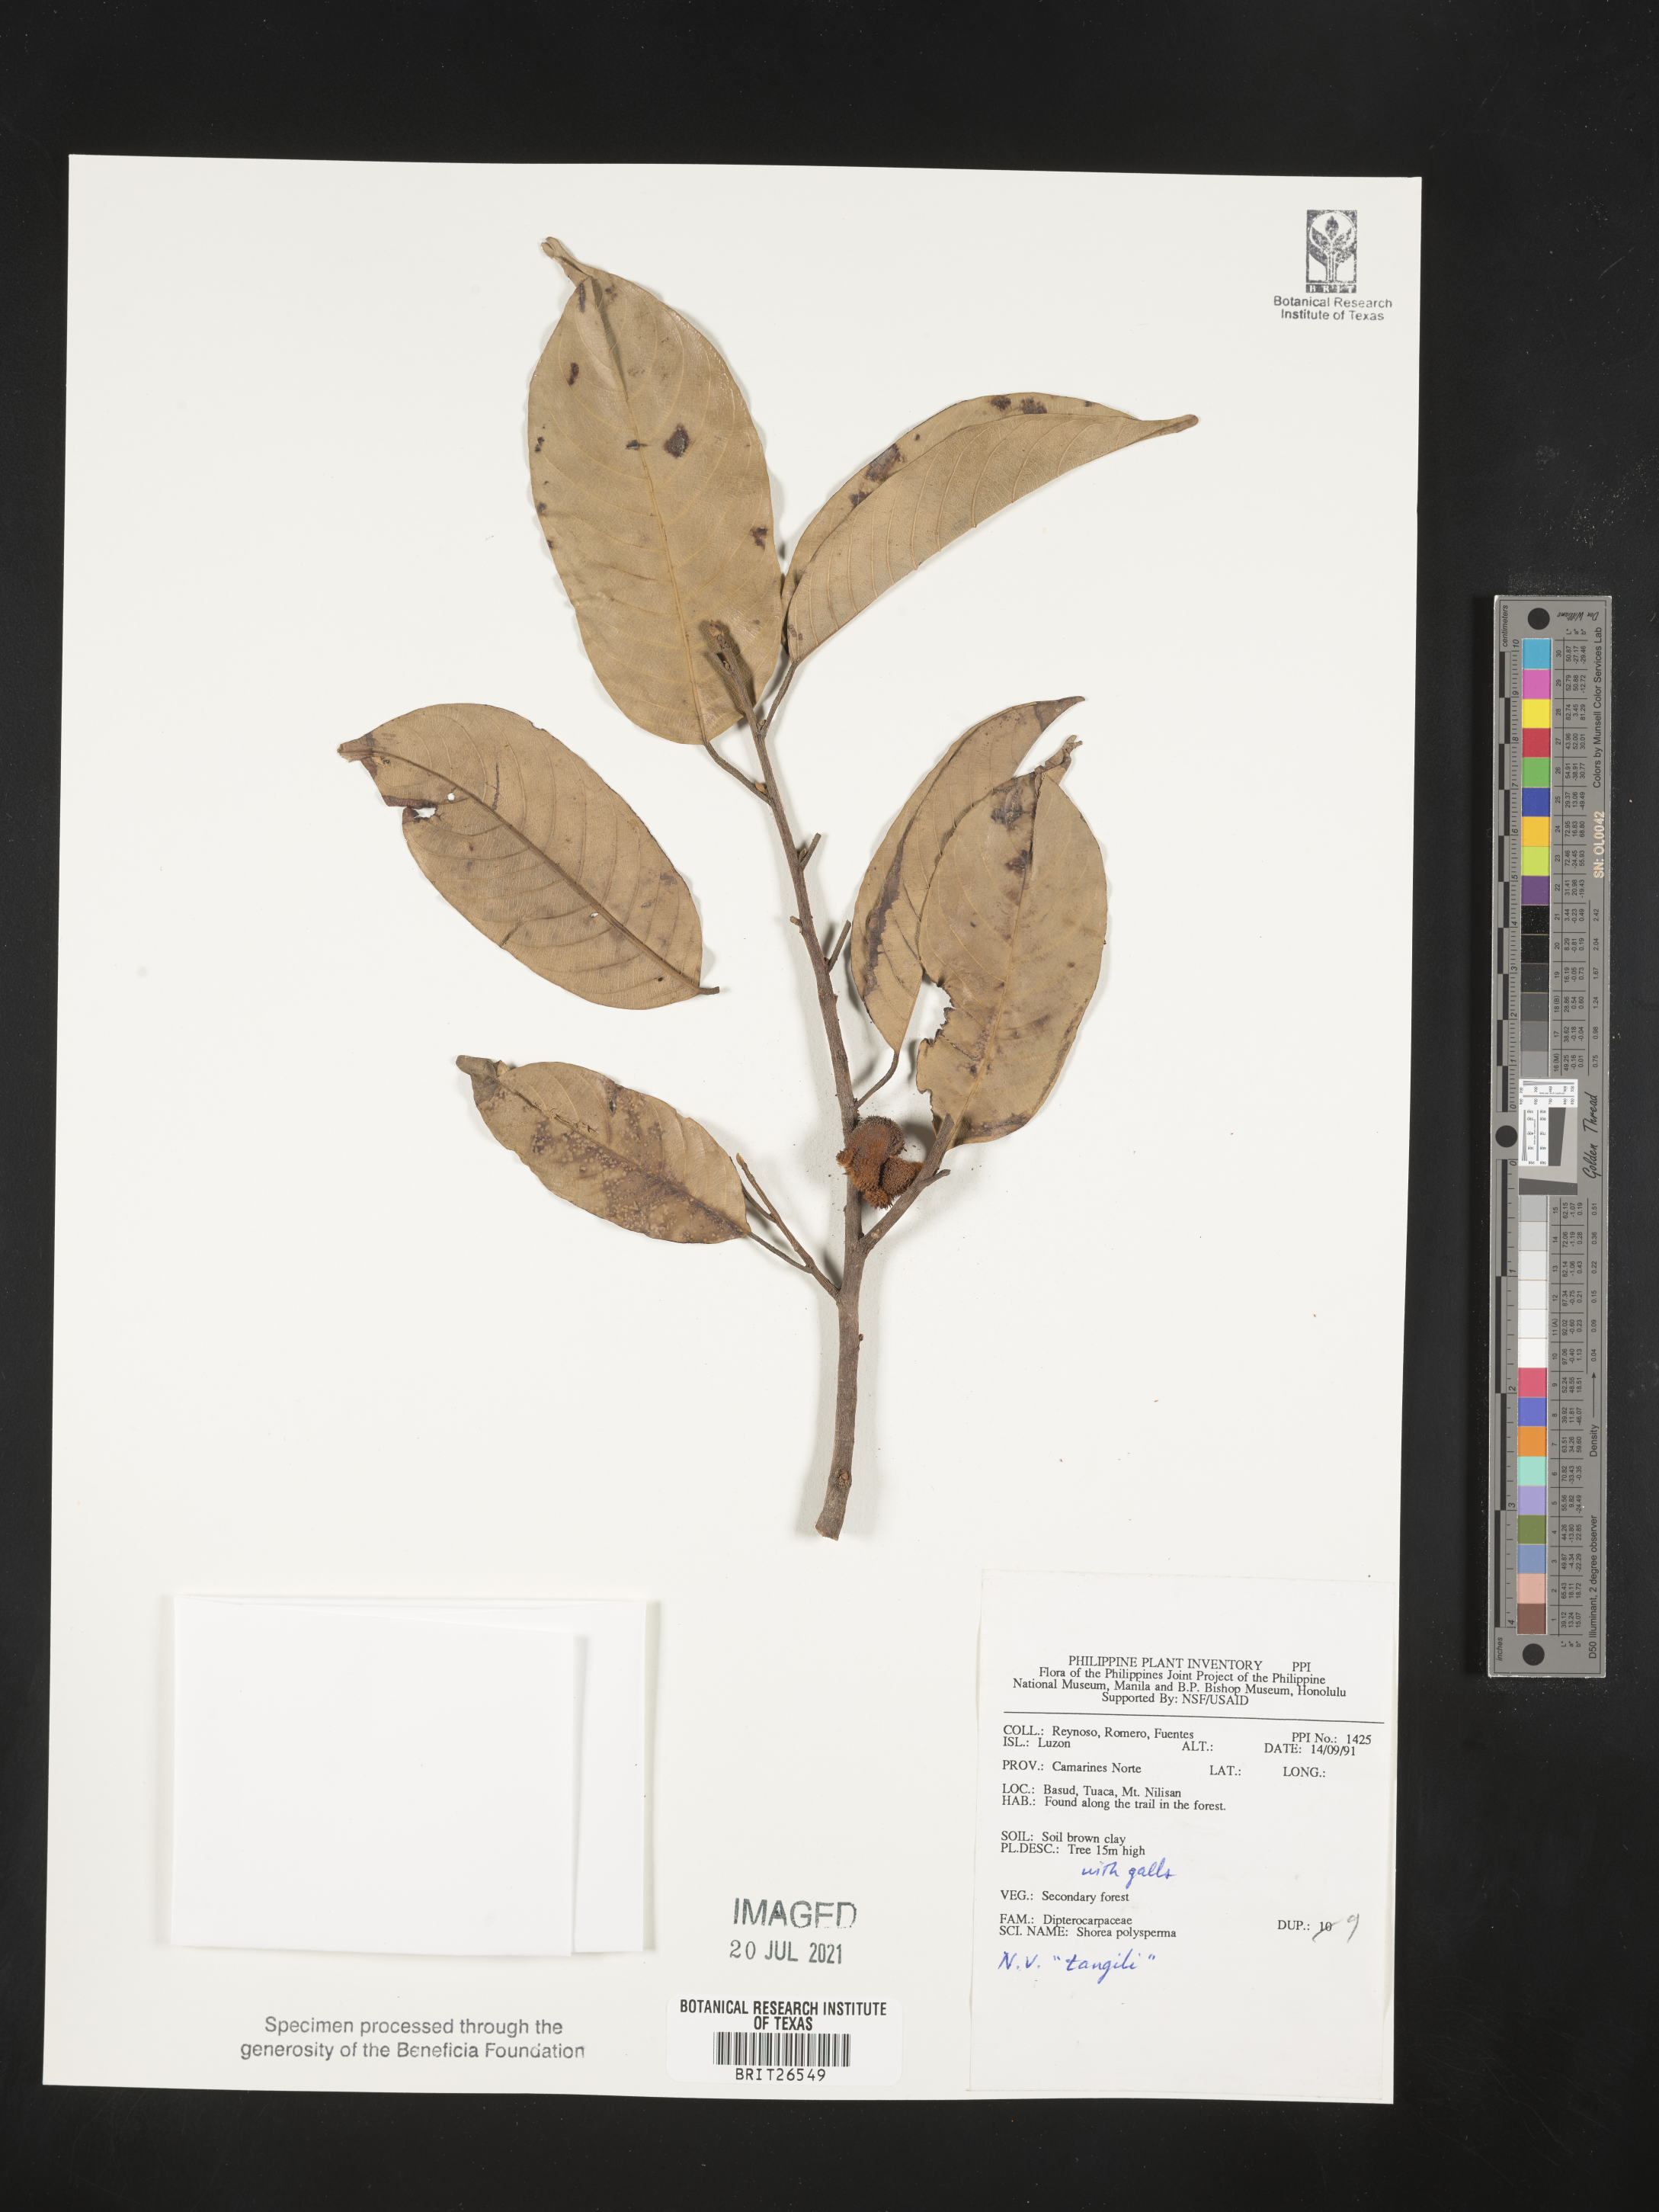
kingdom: Plantae
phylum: Tracheophyta
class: Magnoliopsida
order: Malvales
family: Dipterocarpaceae
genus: Shorea
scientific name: Shorea polysperma
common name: Dark-red philippine-mahogany
